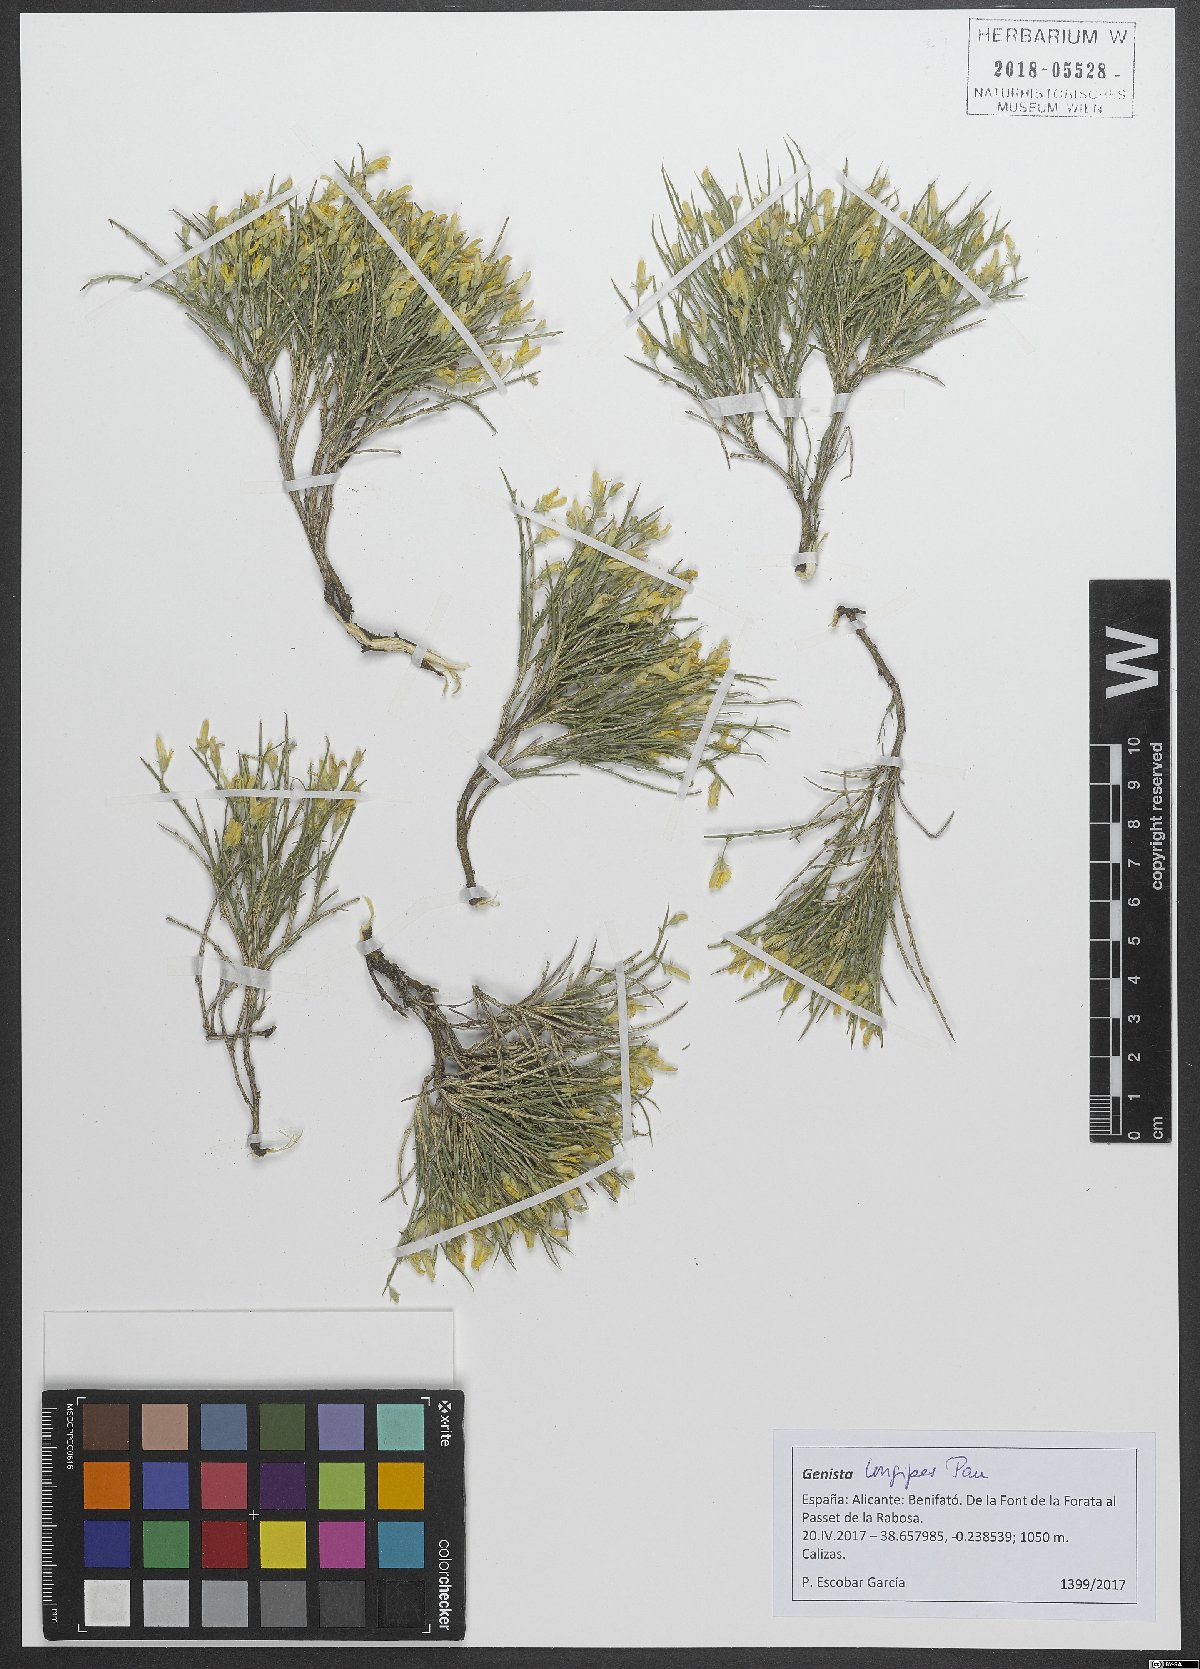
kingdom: Plantae
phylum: Tracheophyta
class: Magnoliopsida
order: Fabales
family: Fabaceae
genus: Genista
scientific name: Genista longipes
